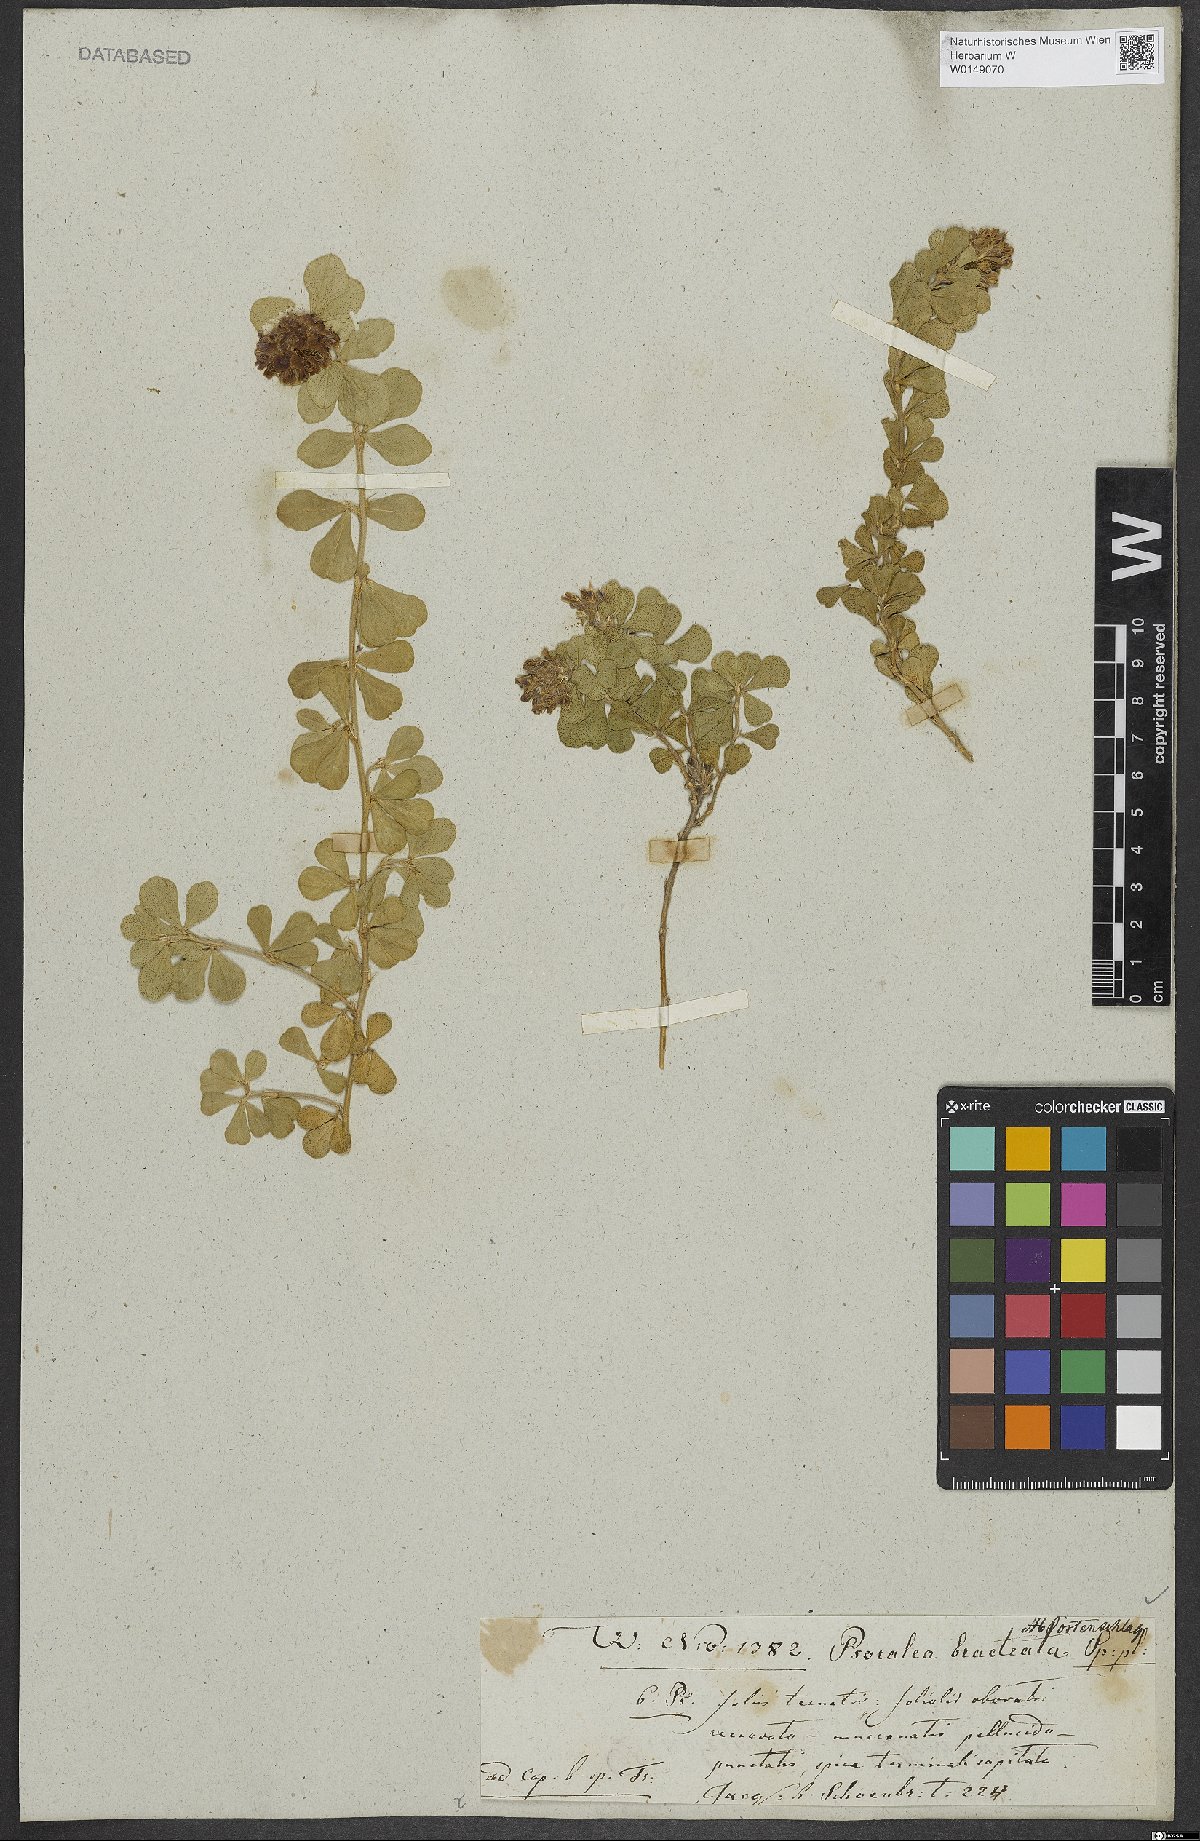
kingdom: Plantae
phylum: Tracheophyta
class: Magnoliopsida
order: Fabales
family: Fabaceae
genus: Psoralea
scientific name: Psoralea fruticans
